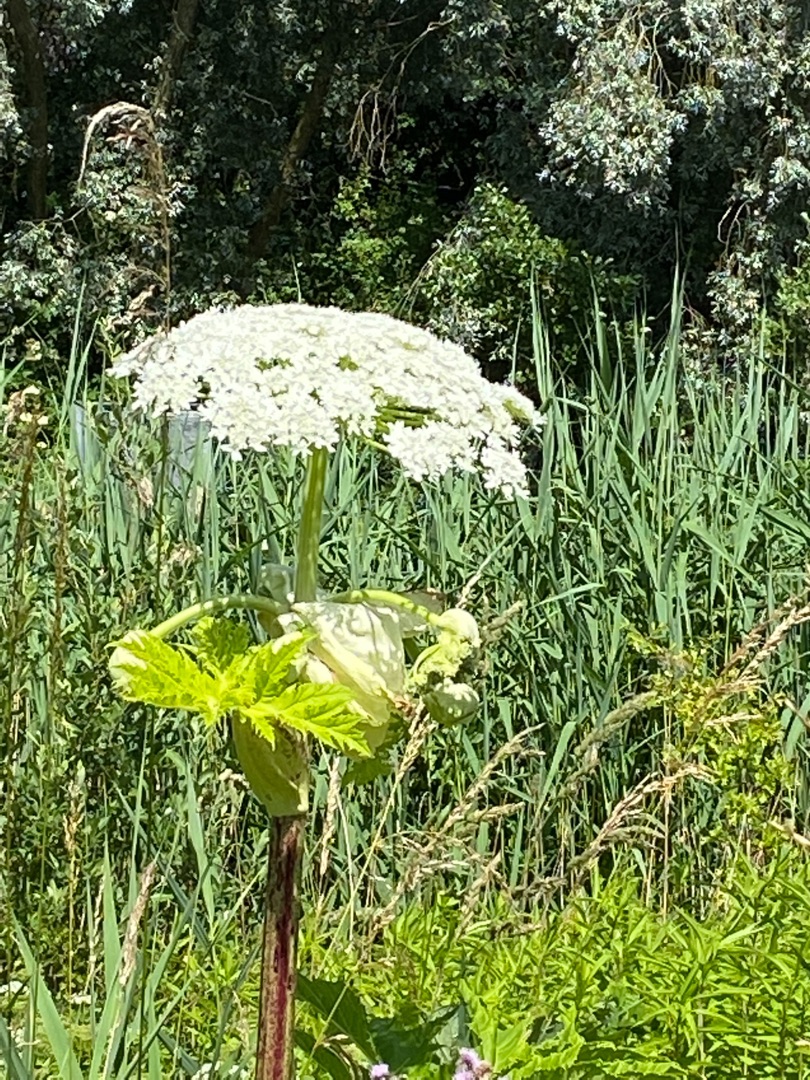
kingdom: Plantae
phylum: Tracheophyta
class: Magnoliopsida
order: Apiales
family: Apiaceae
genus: Heracleum
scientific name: Heracleum mantegazzianum
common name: Kæmpe-bjørneklo
